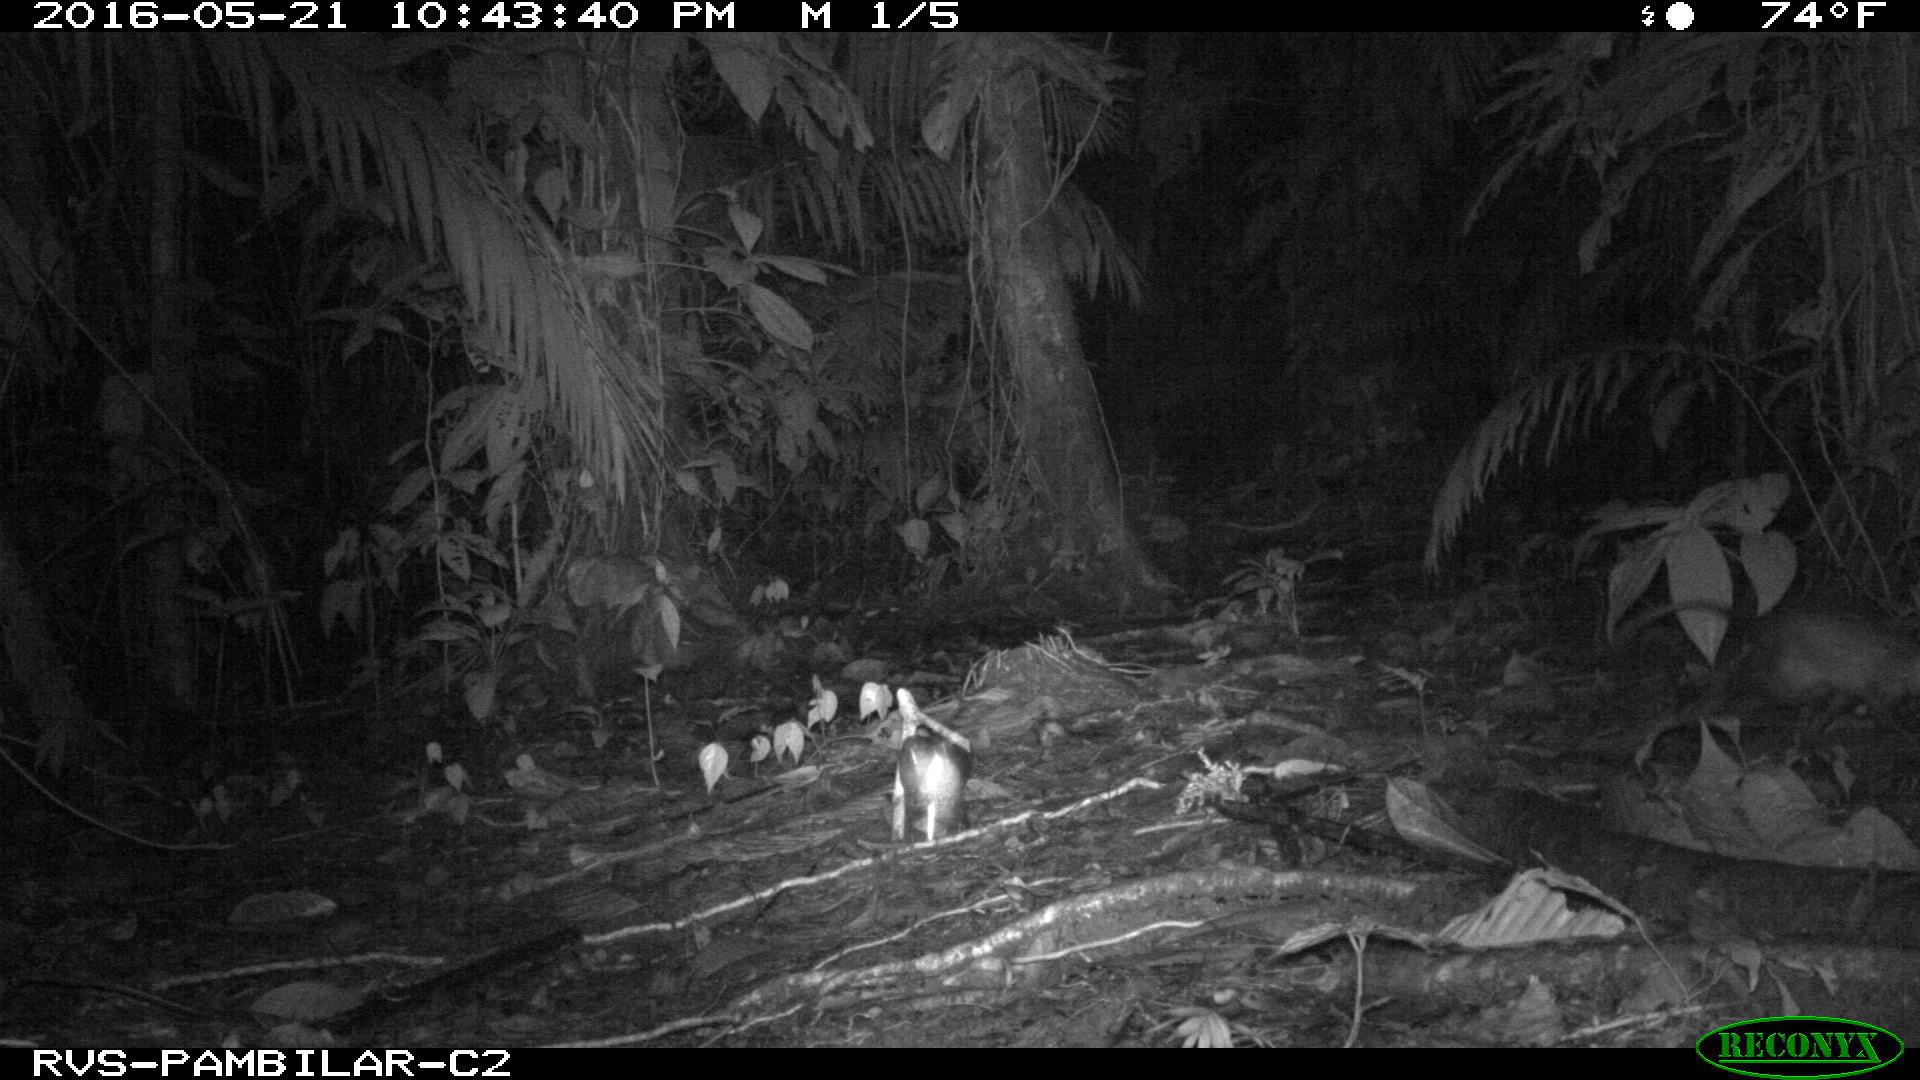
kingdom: Animalia
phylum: Chordata
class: Mammalia
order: Didelphimorphia
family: Didelphidae
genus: Didelphis
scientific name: Didelphis marsupialis
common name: Common opossum
